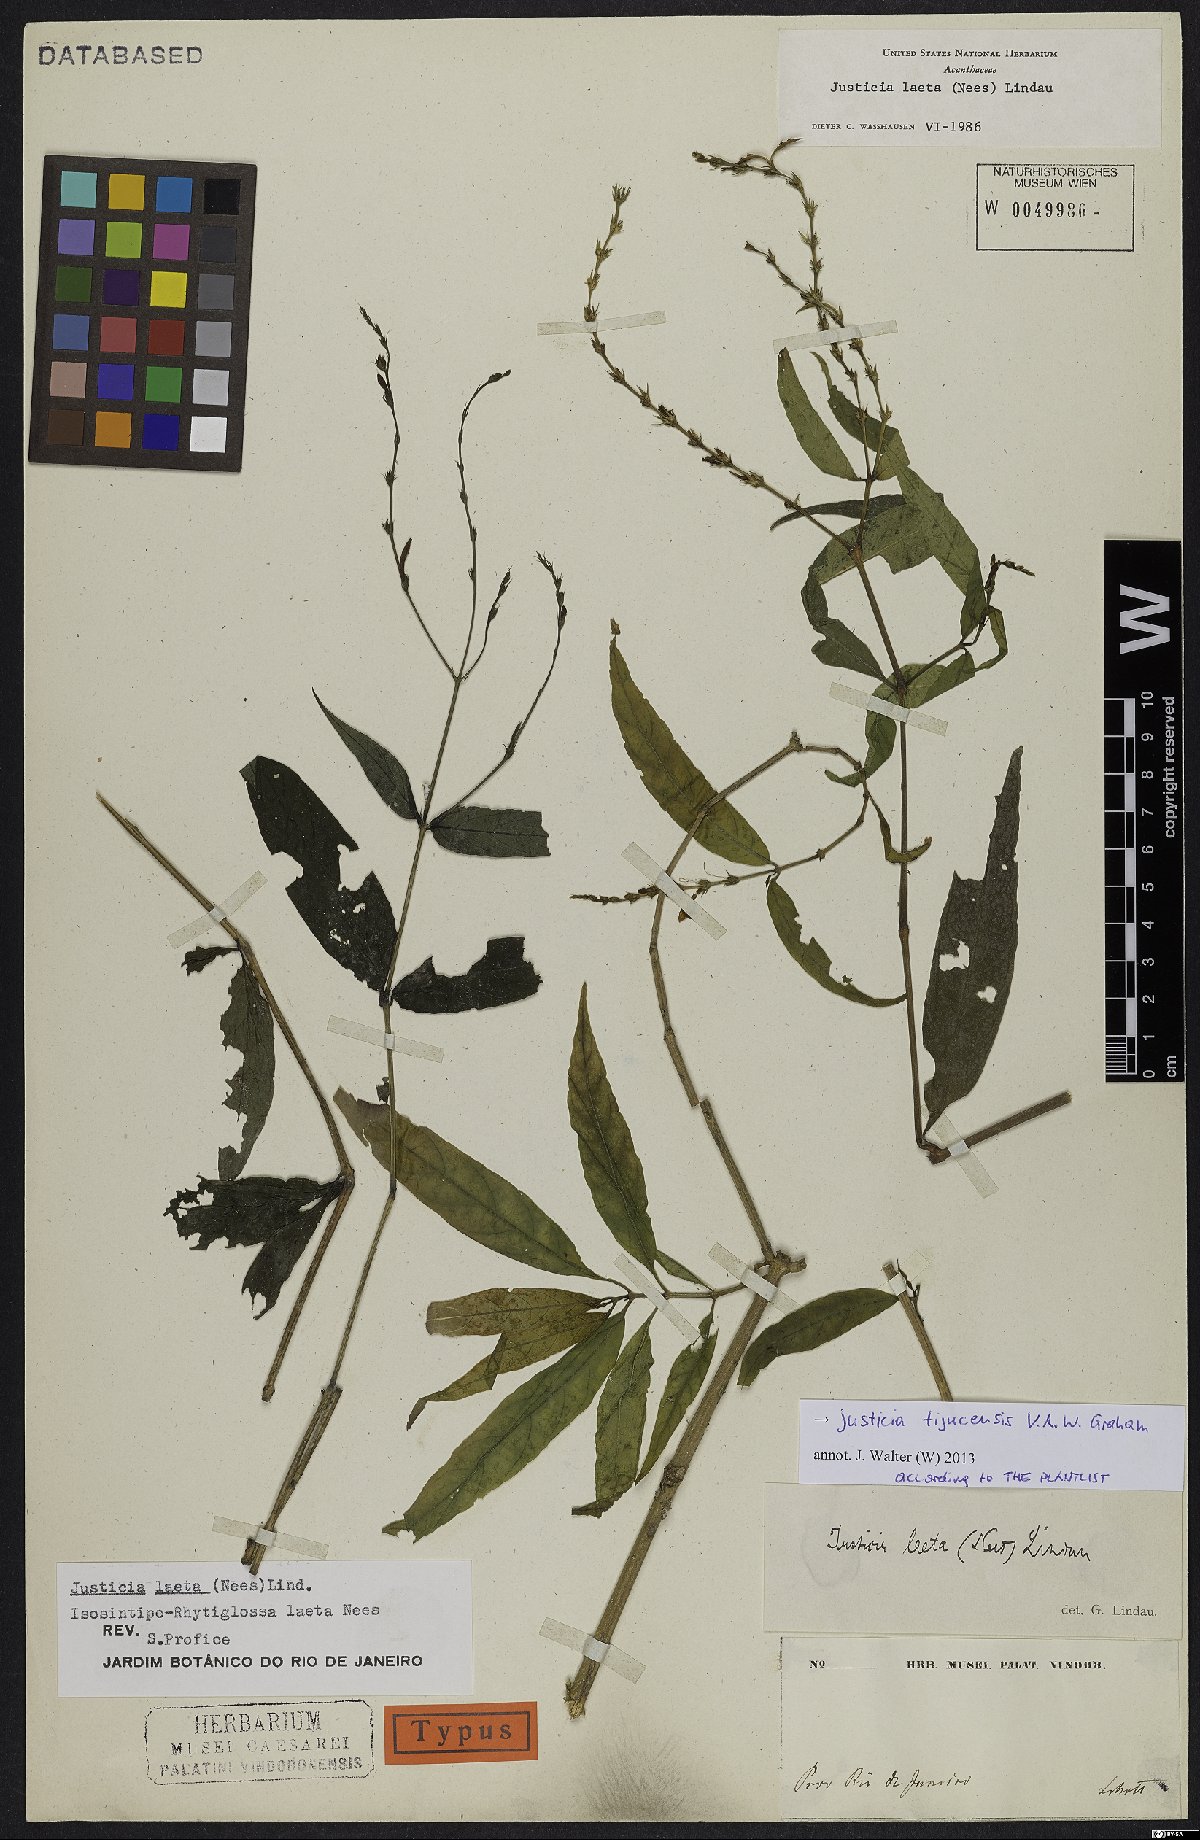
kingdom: Plantae
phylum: Tracheophyta
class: Magnoliopsida
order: Lamiales
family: Acanthaceae
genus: Dianthera
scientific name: Dianthera laeta
